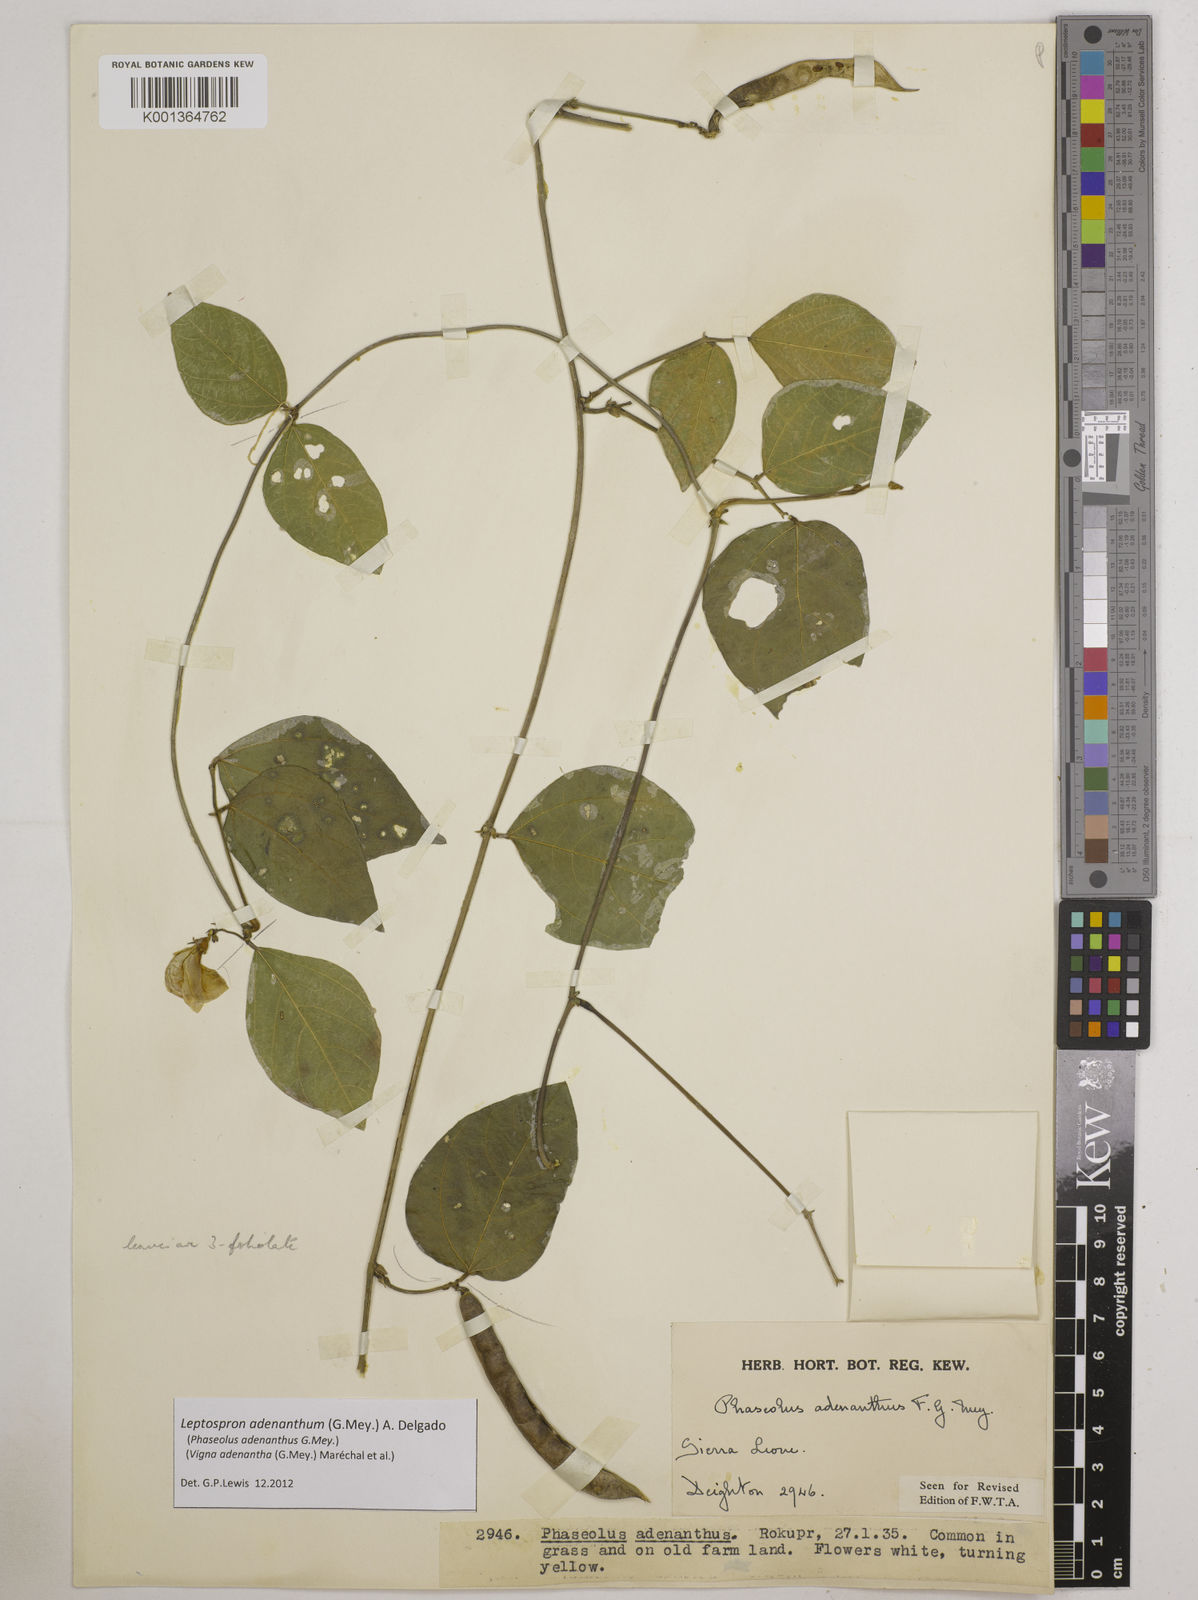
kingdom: Plantae
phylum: Tracheophyta
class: Magnoliopsida
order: Fabales
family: Fabaceae
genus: Leptospron
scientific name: Leptospron adenanthum
